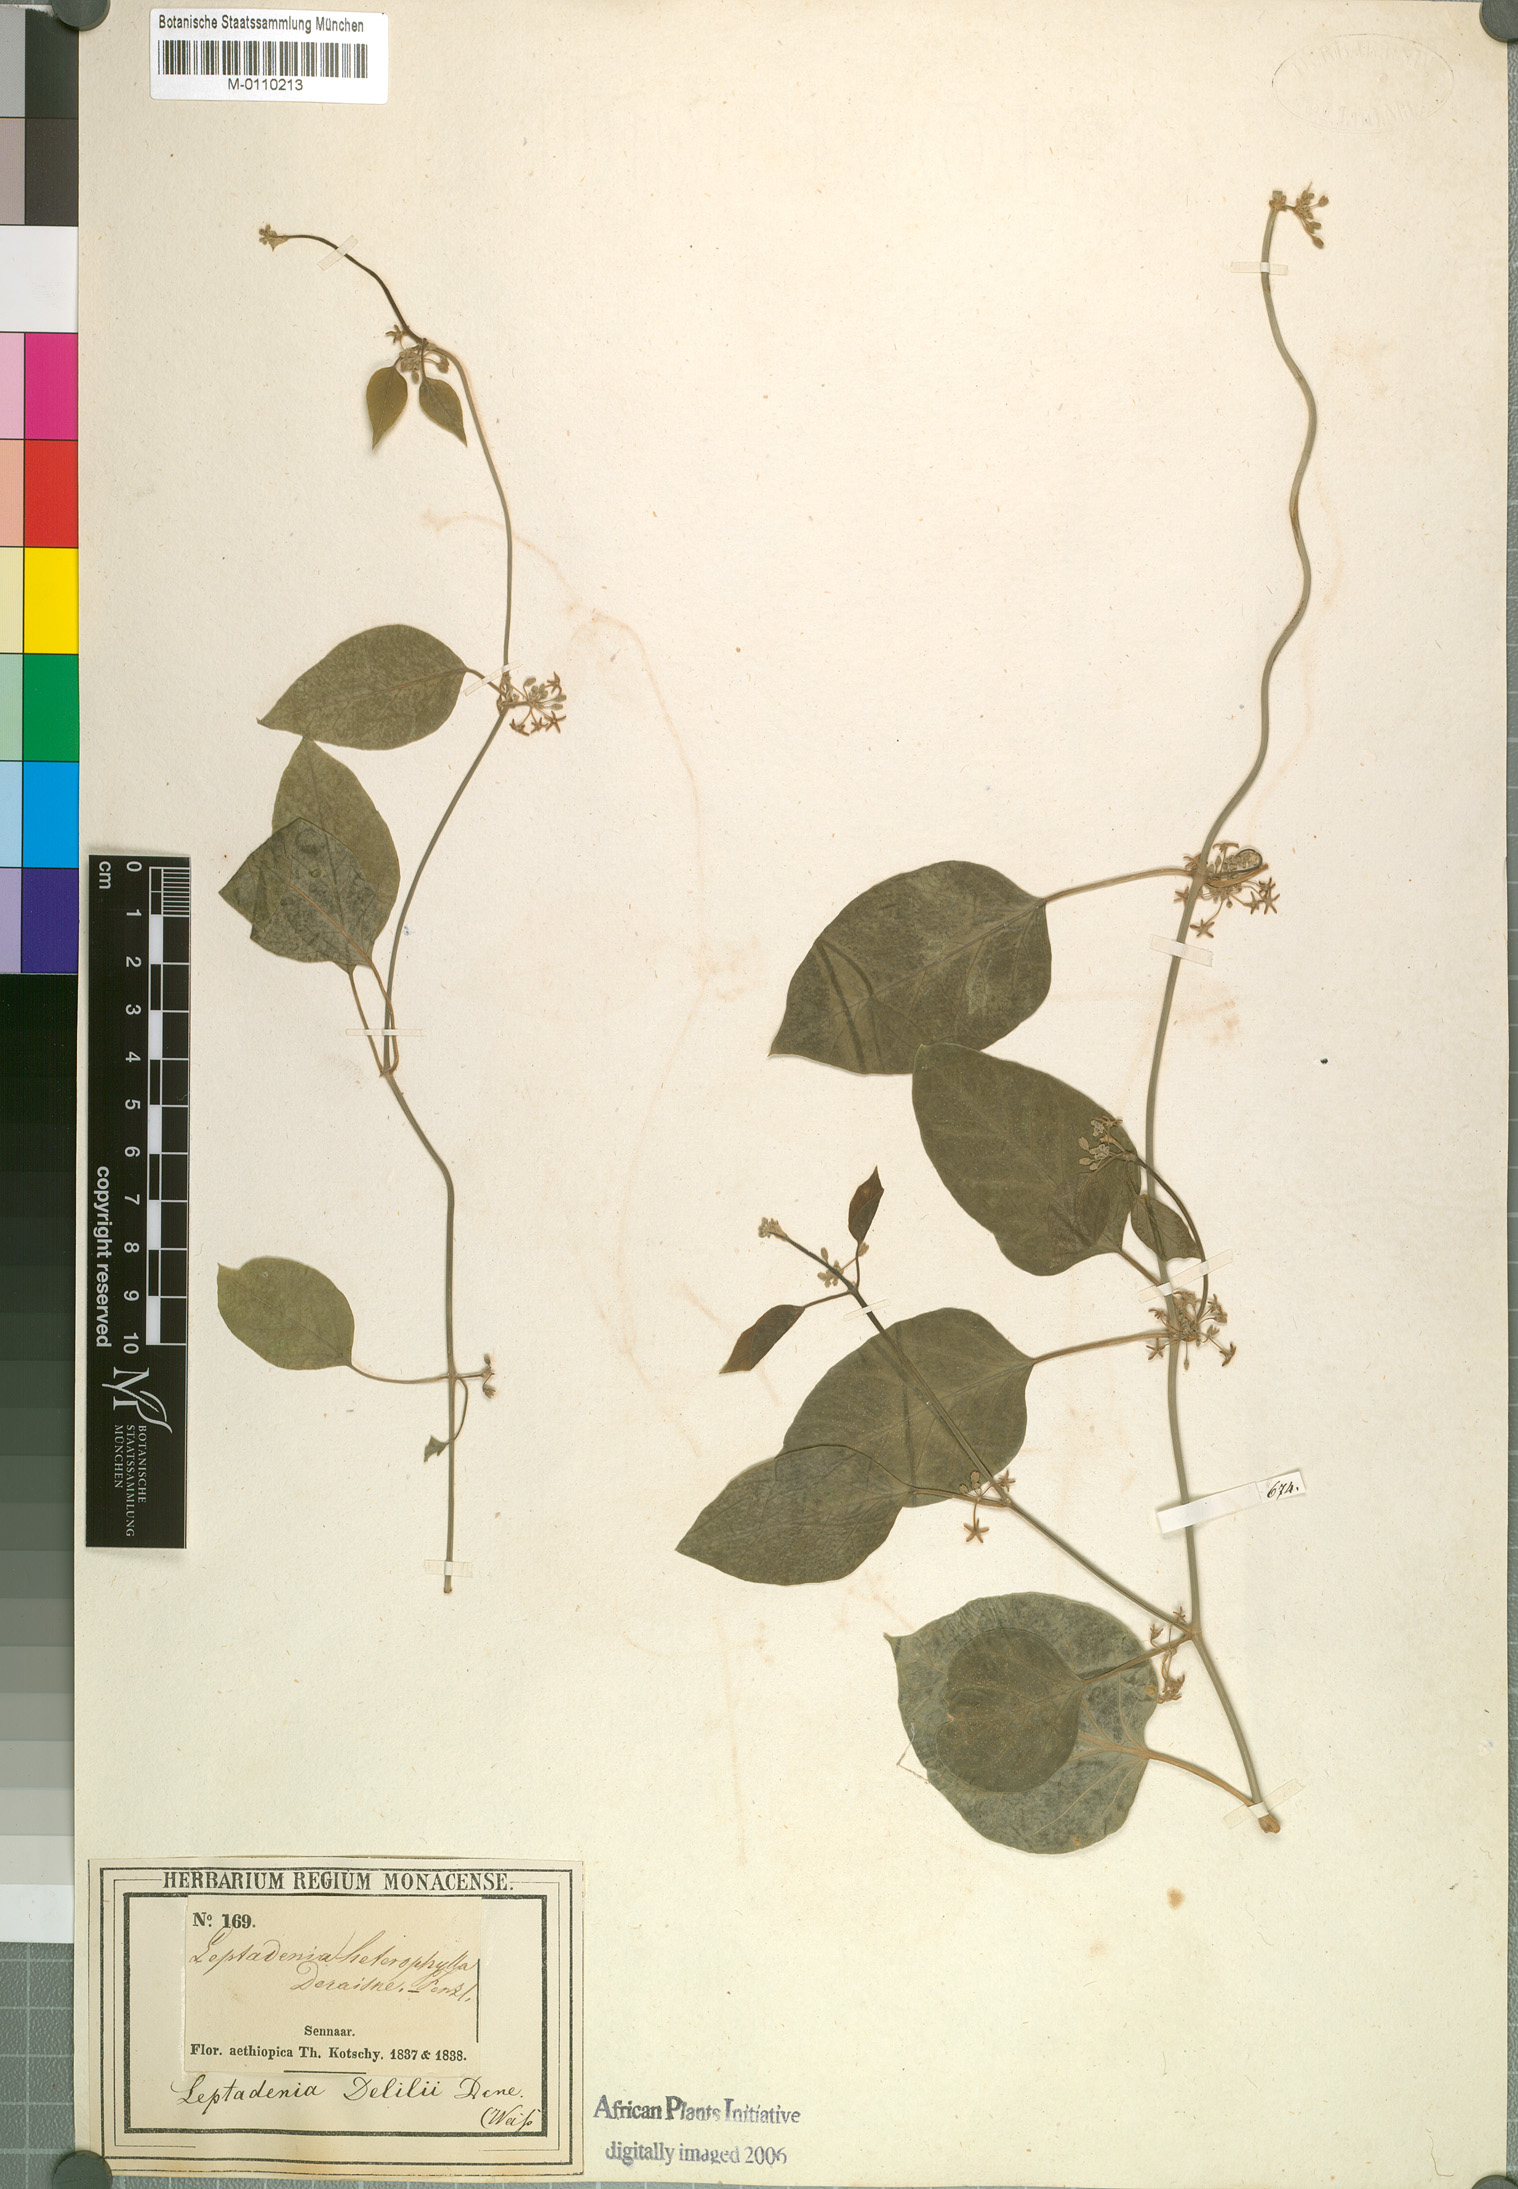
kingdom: Plantae
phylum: Tracheophyta
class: Magnoliopsida
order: Gentianales
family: Apocynaceae
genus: Leptadenia
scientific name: Leptadenia arborea
